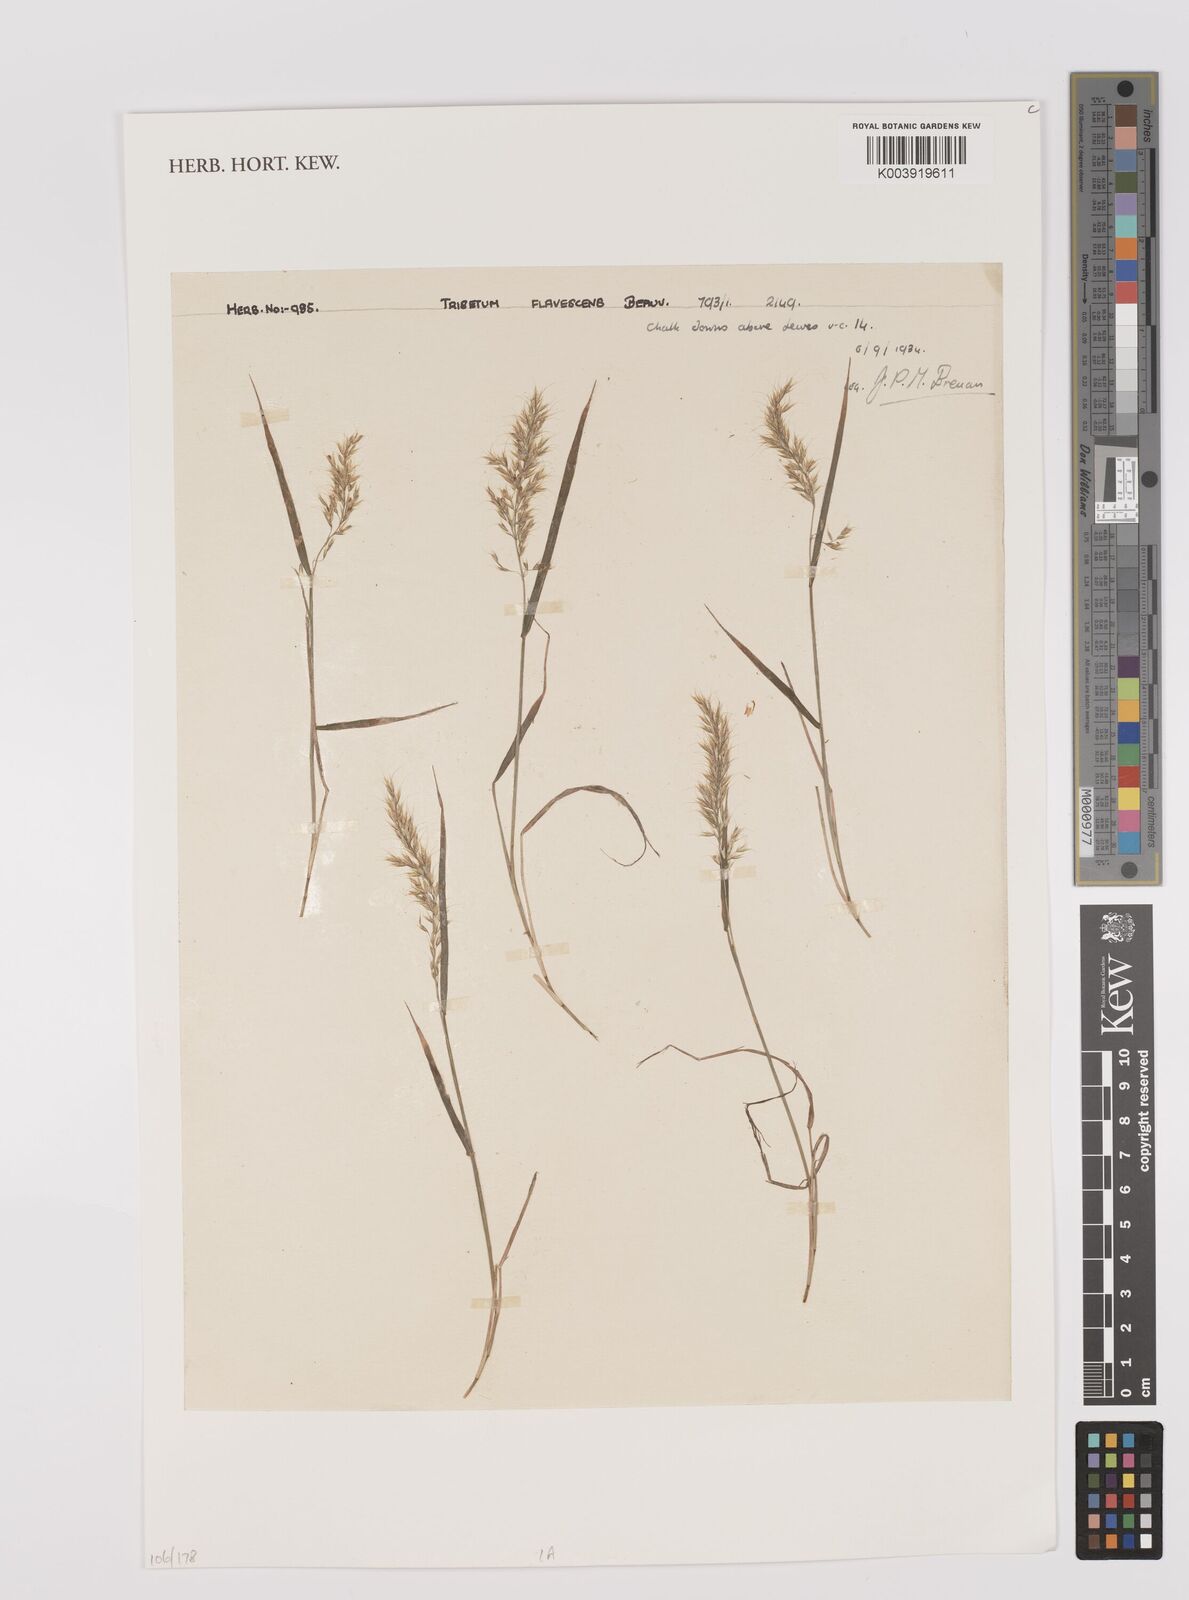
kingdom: Plantae
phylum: Tracheophyta
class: Liliopsida
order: Poales
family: Poaceae
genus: Trisetum
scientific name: Trisetum flavescens
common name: Yellow oat-grass
